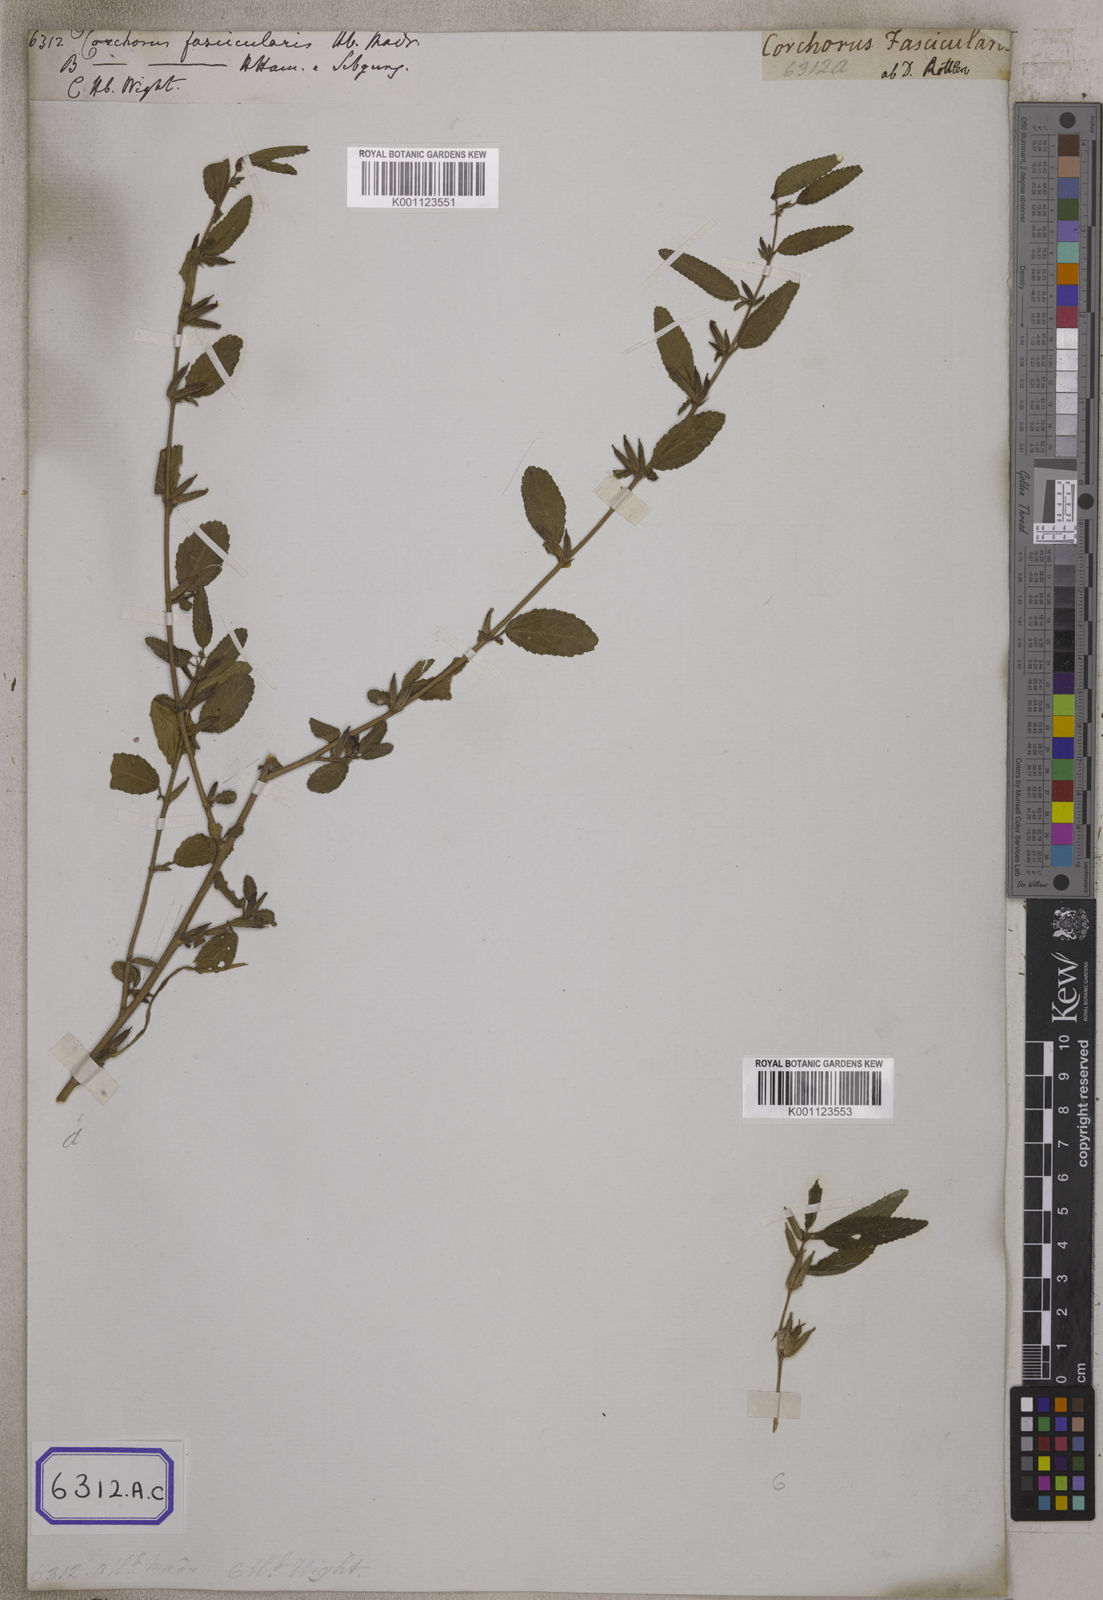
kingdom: Plantae
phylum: Tracheophyta
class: Magnoliopsida
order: Malvales
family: Malvaceae
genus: Corchorus
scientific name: Corchorus fascicularis
